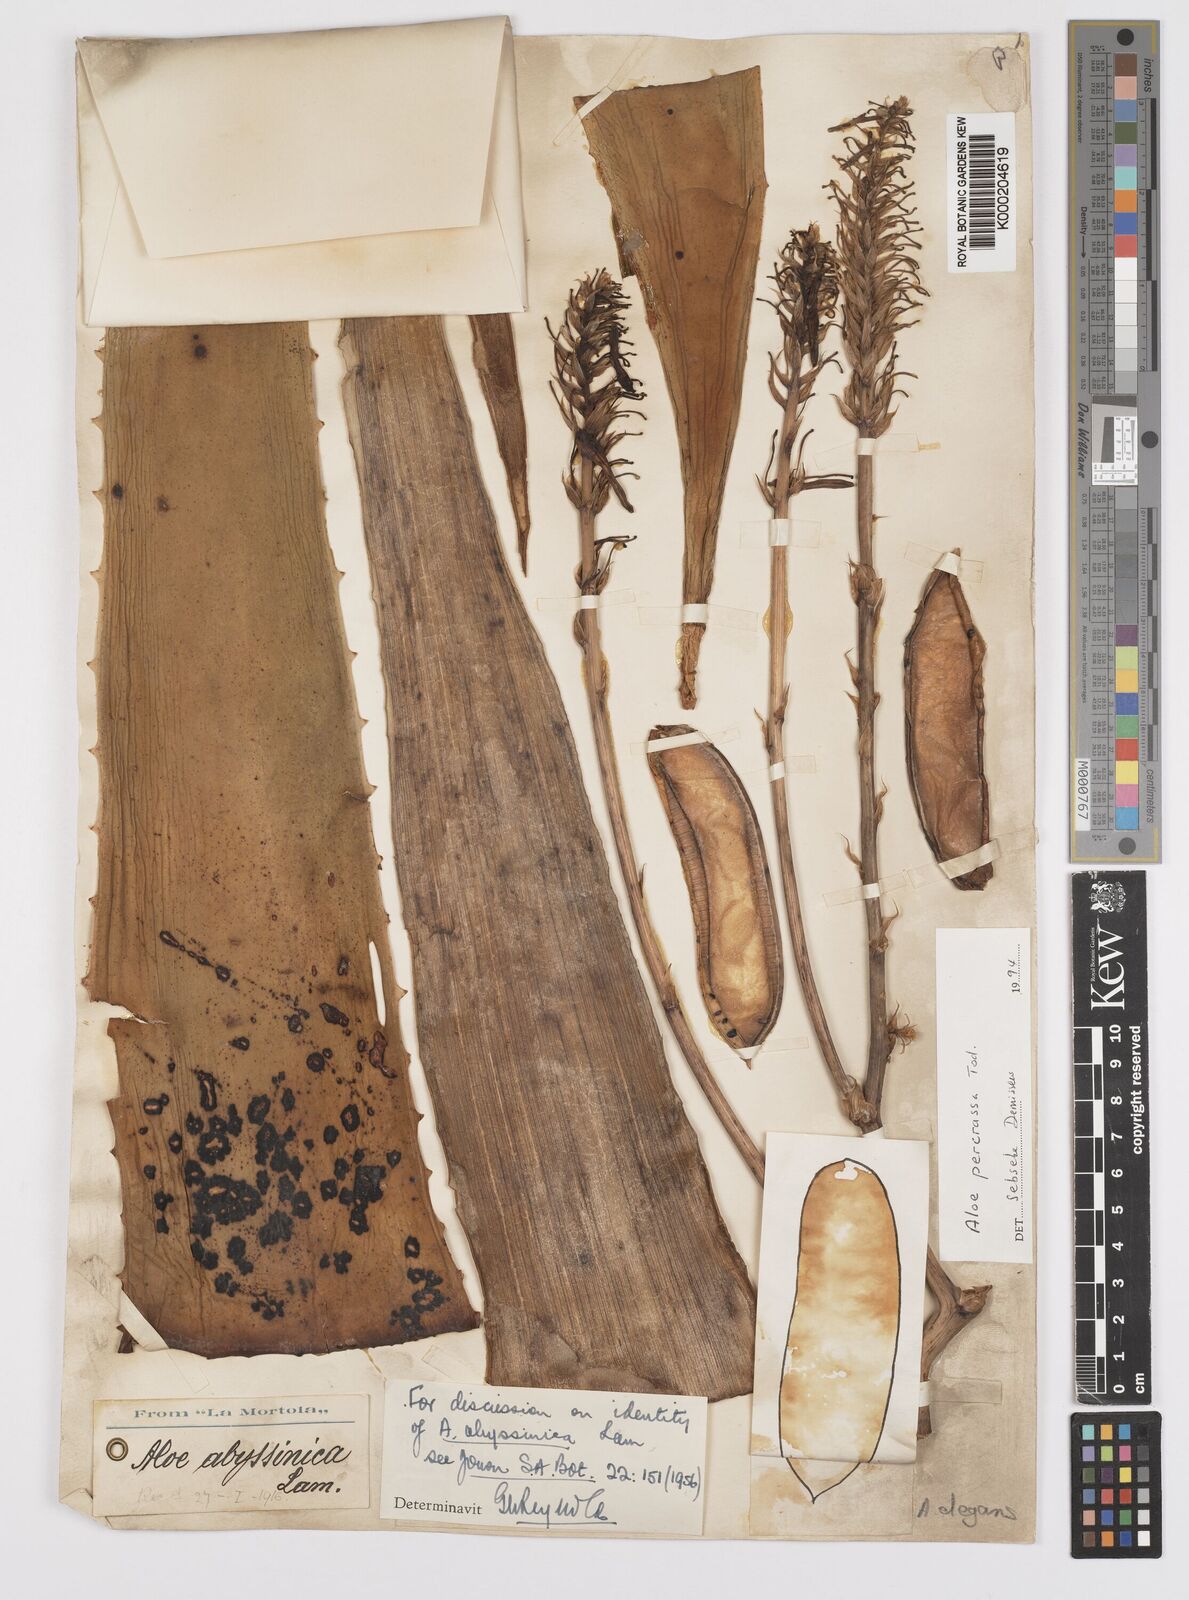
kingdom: Plantae
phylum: Tracheophyta
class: Liliopsida
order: Asparagales
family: Asphodelaceae
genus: Aloe
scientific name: Aloe percrassa
